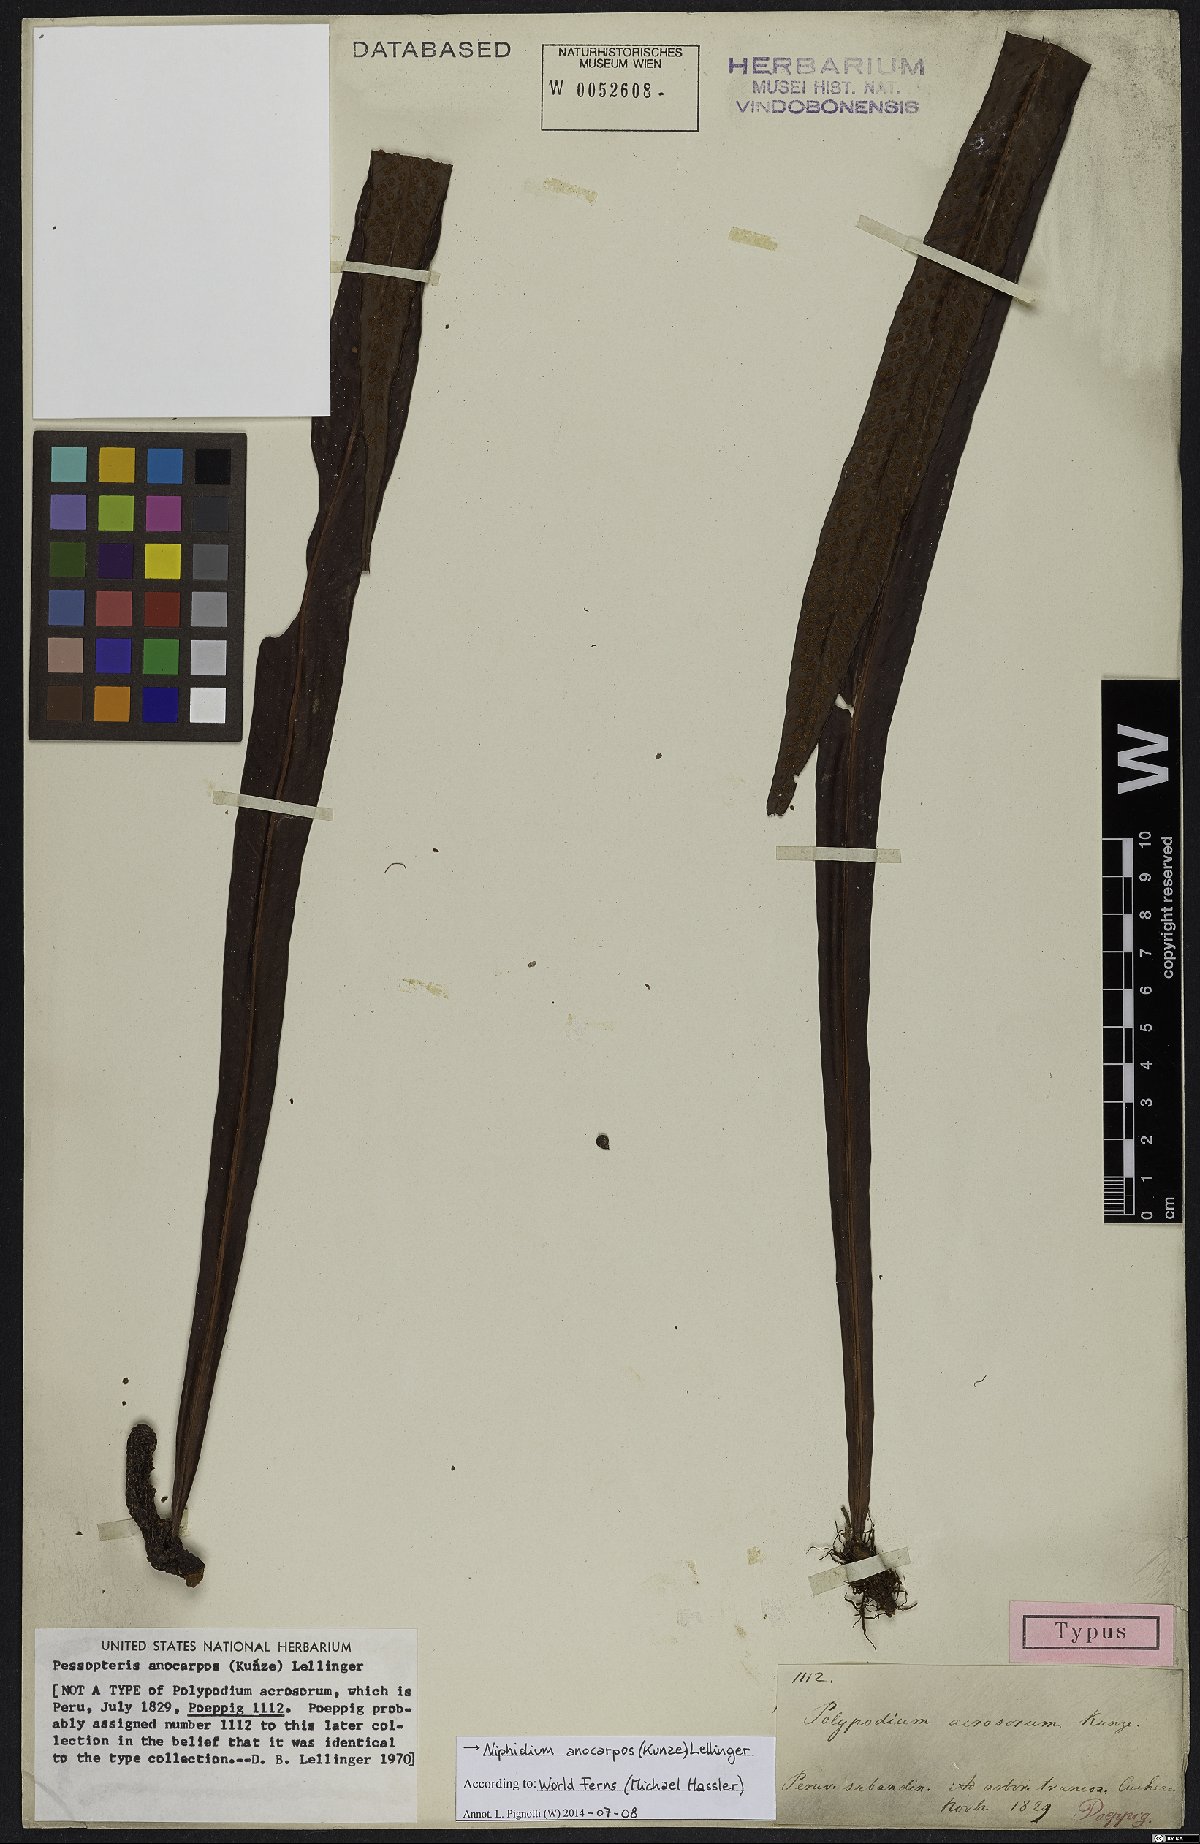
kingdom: Plantae
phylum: Tracheophyta
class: Polypodiopsida
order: Polypodiales
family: Polypodiaceae
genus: Niphidium
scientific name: Niphidium anocarpos
